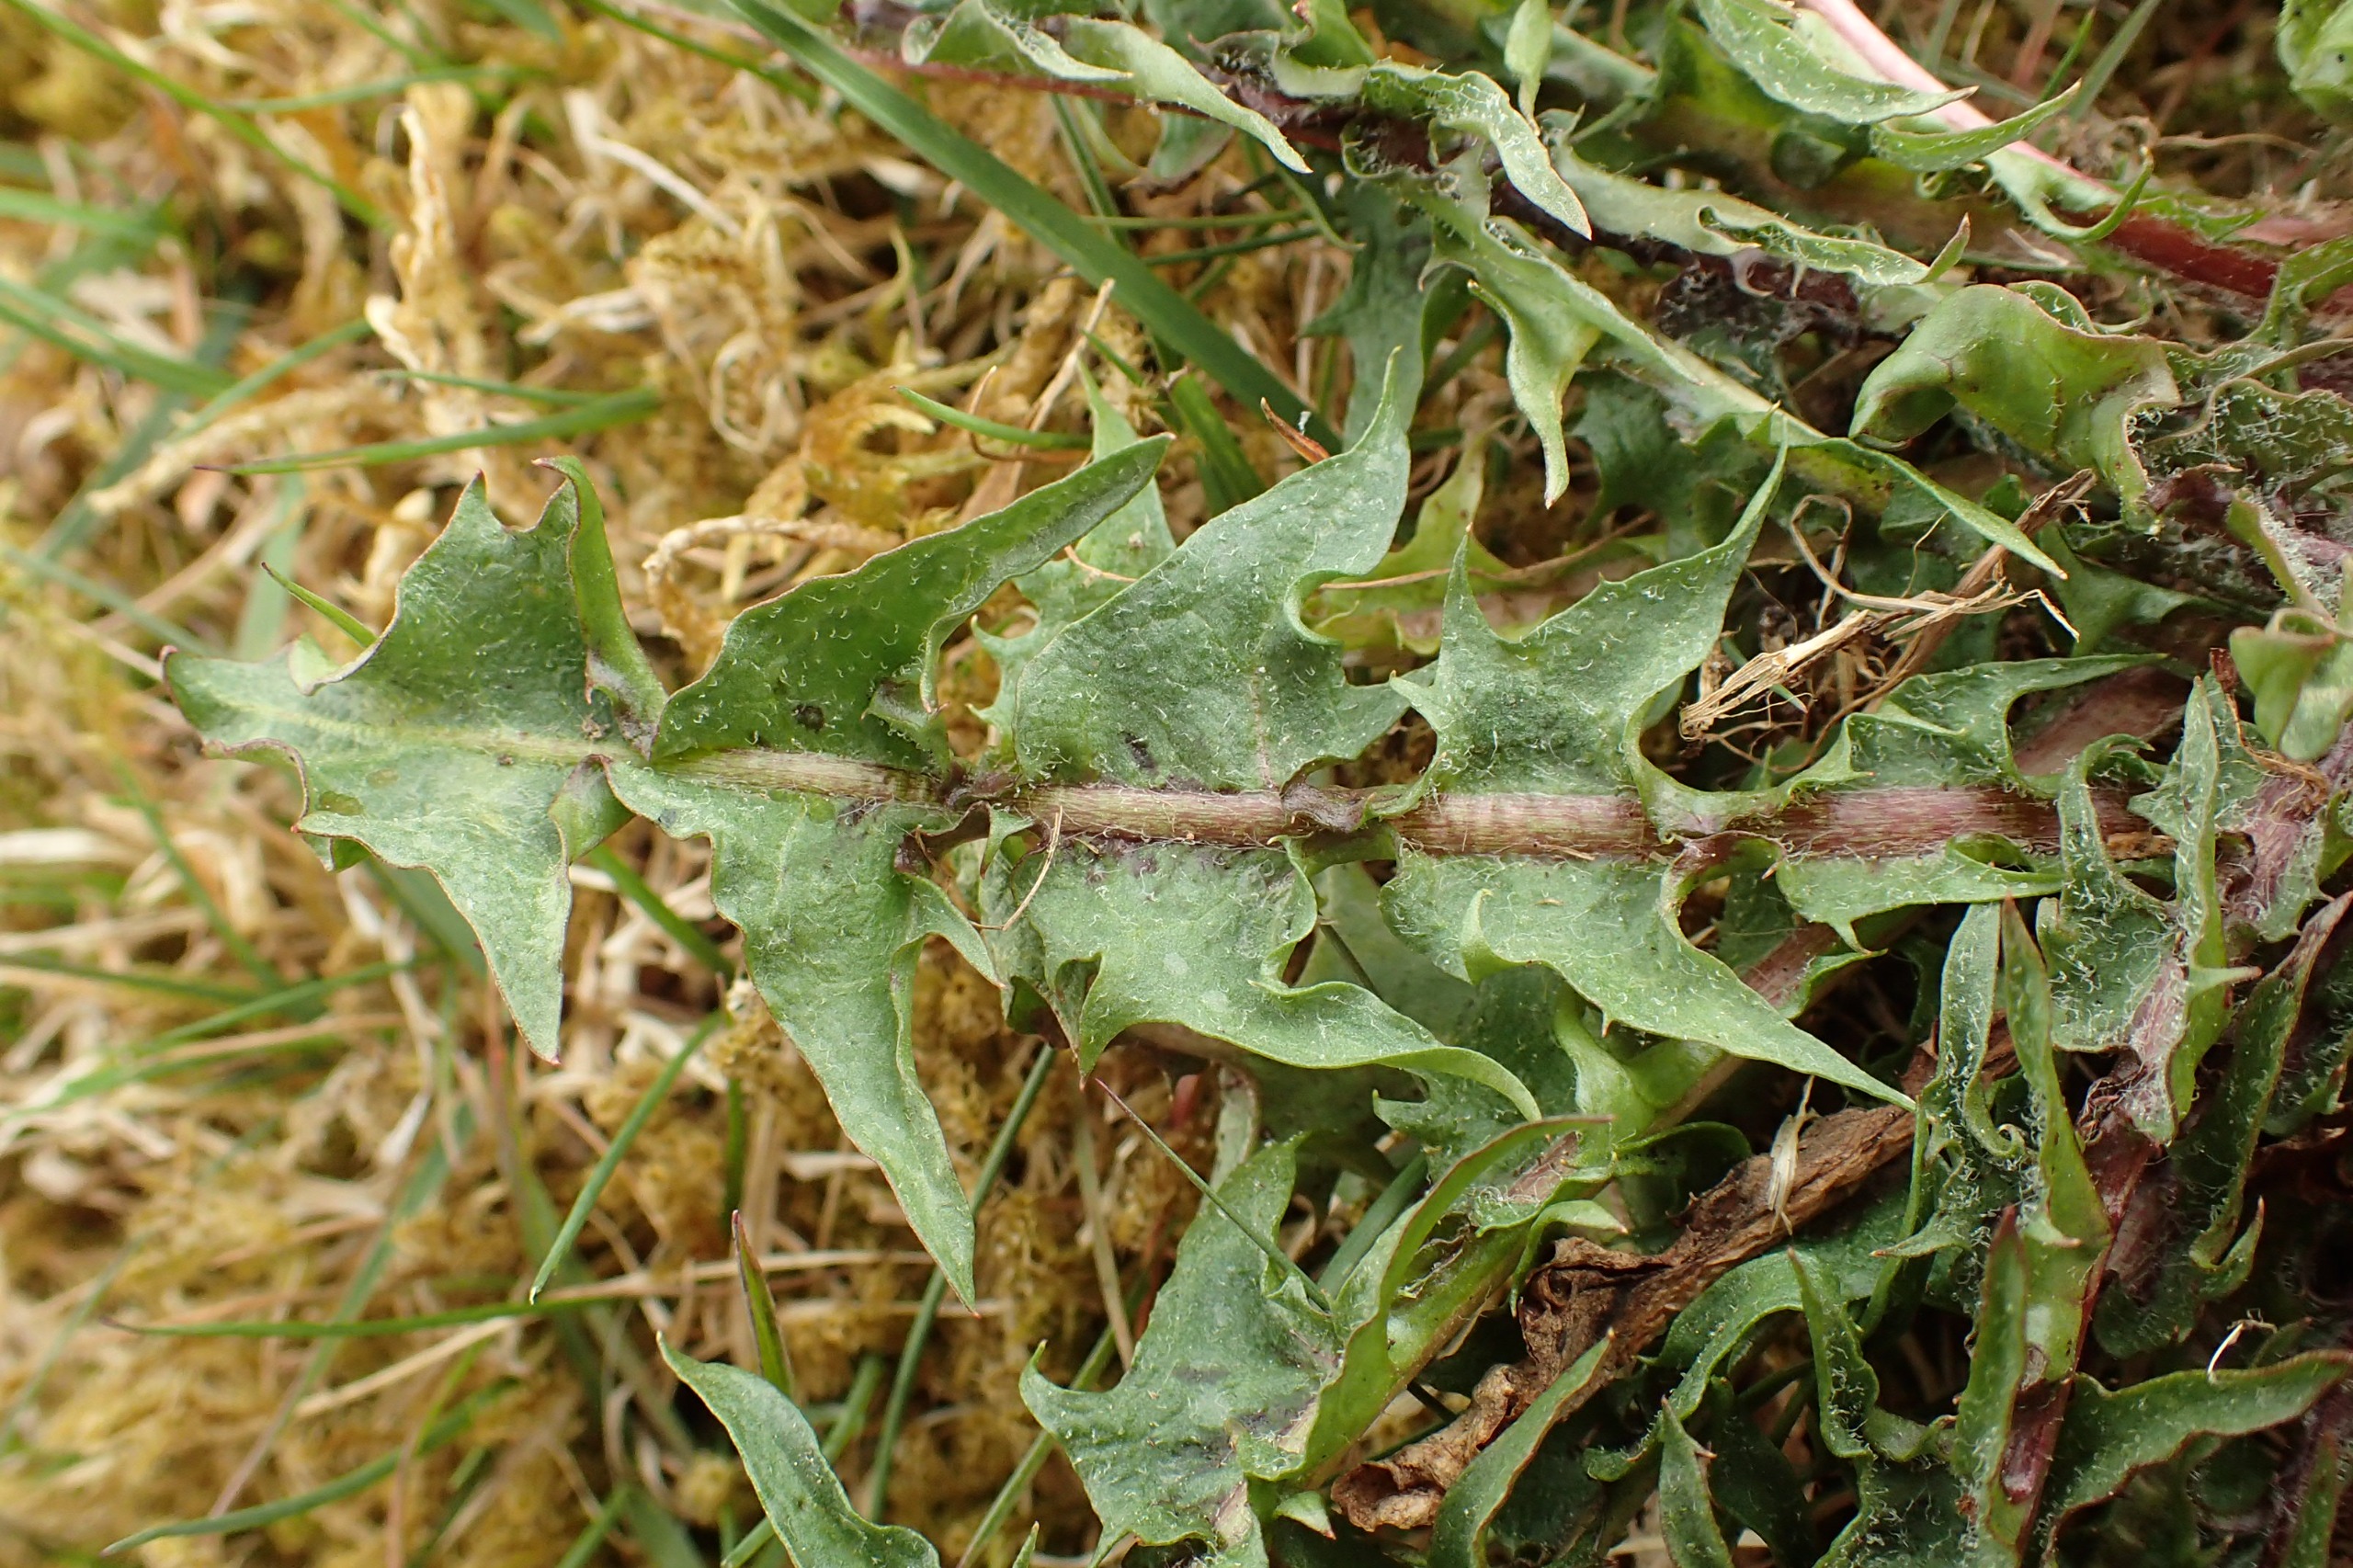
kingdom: Plantae
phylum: Tracheophyta
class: Magnoliopsida
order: Asterales
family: Asteraceae
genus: Taraxacum
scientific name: Taraxacum faeroense
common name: Kimbrisk atlantmælkebøtte
